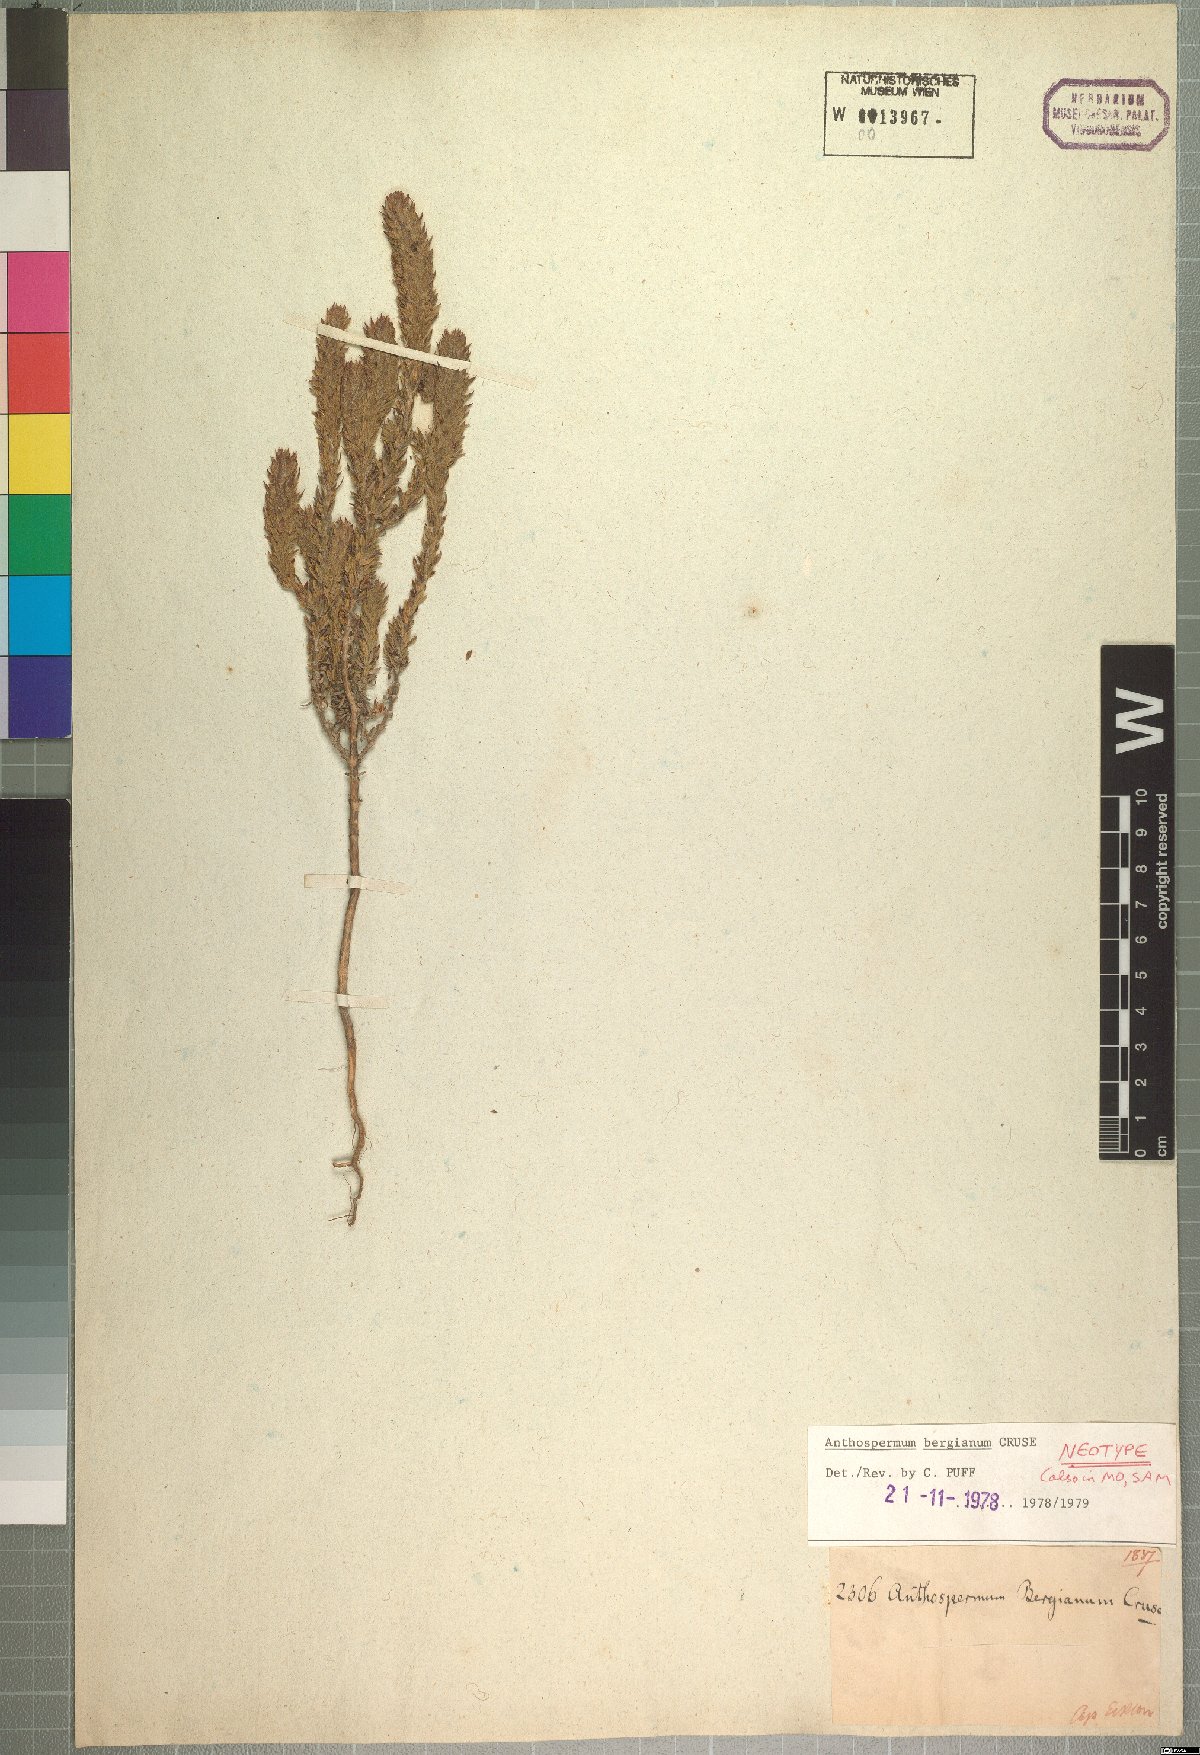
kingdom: Plantae
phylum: Tracheophyta
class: Magnoliopsida
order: Gentianales
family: Rubiaceae
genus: Anthospermum
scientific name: Anthospermum bergianum
